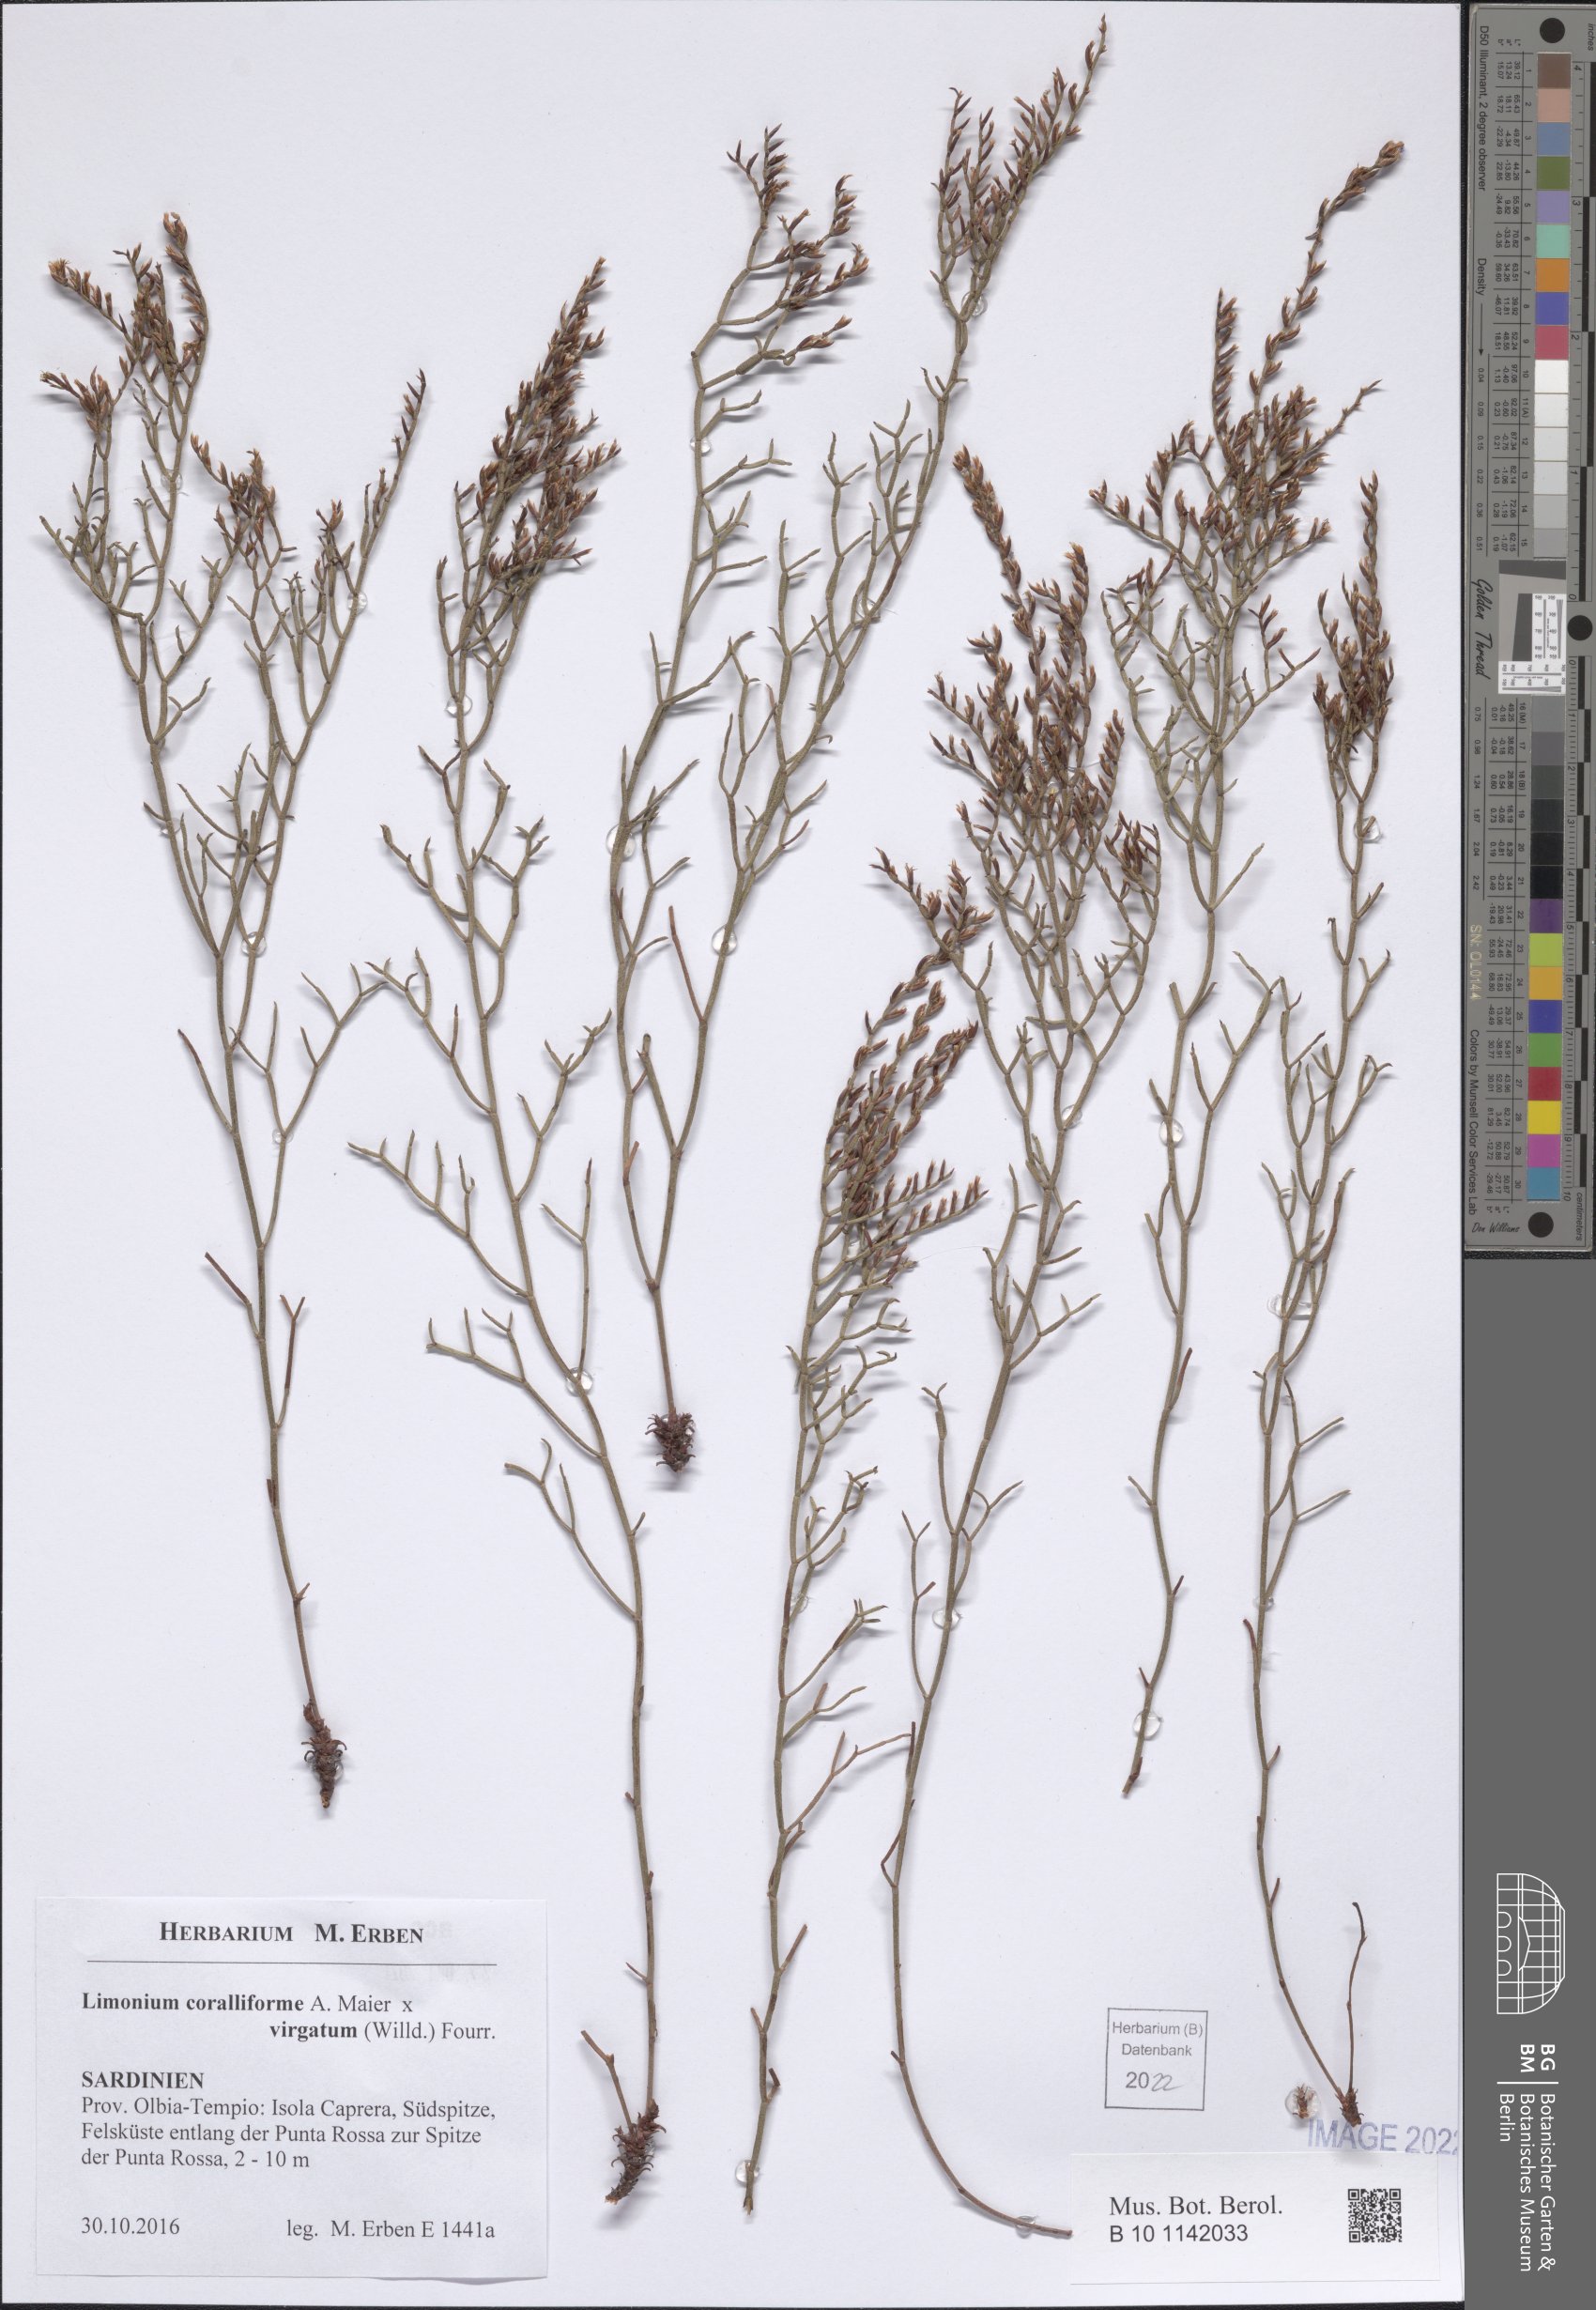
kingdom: Plantae
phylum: Tracheophyta
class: Magnoliopsida
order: Caryophyllales
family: Plumbaginaceae
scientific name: Plumbaginaceae
